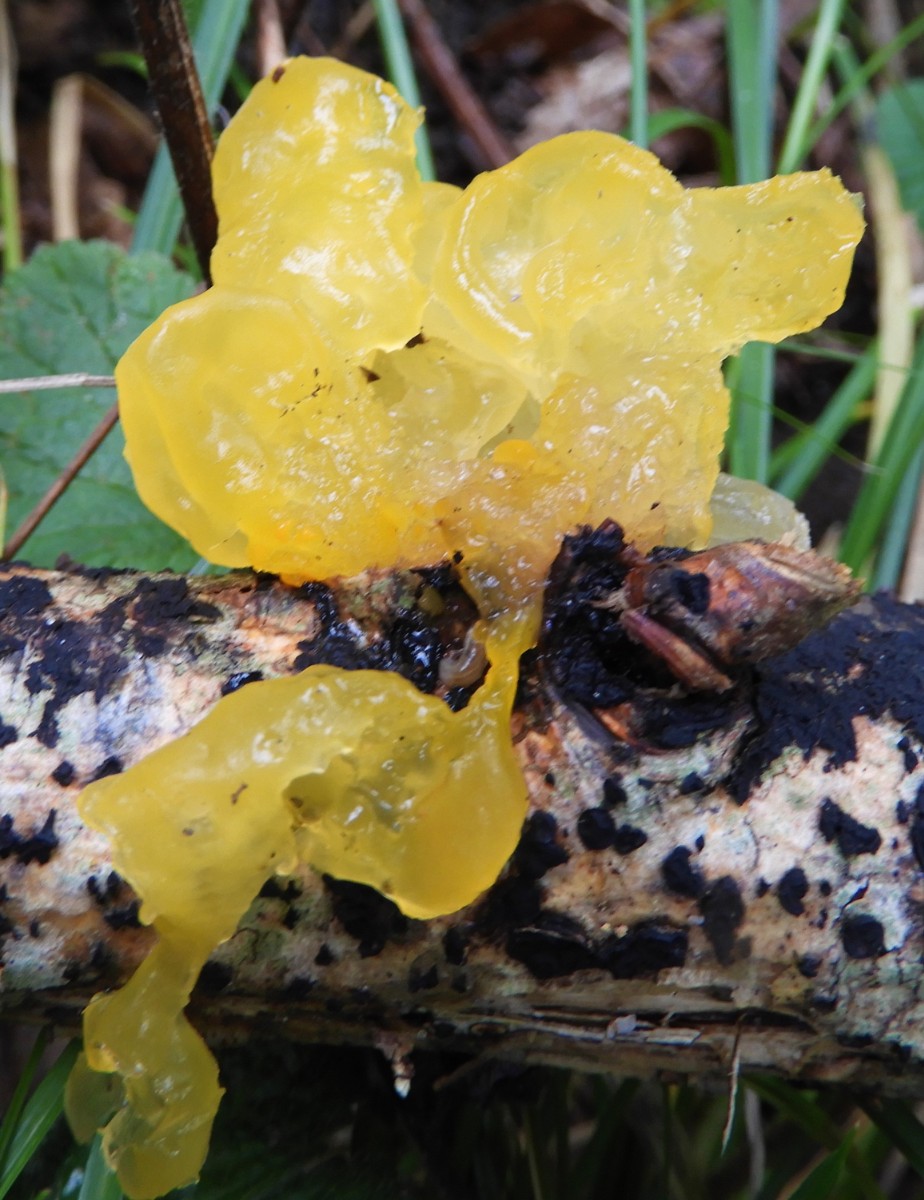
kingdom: Fungi
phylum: Basidiomycota
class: Tremellomycetes
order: Tremellales
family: Tremellaceae
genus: Tremella
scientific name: Tremella mesenterica
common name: gul bævresvamp
